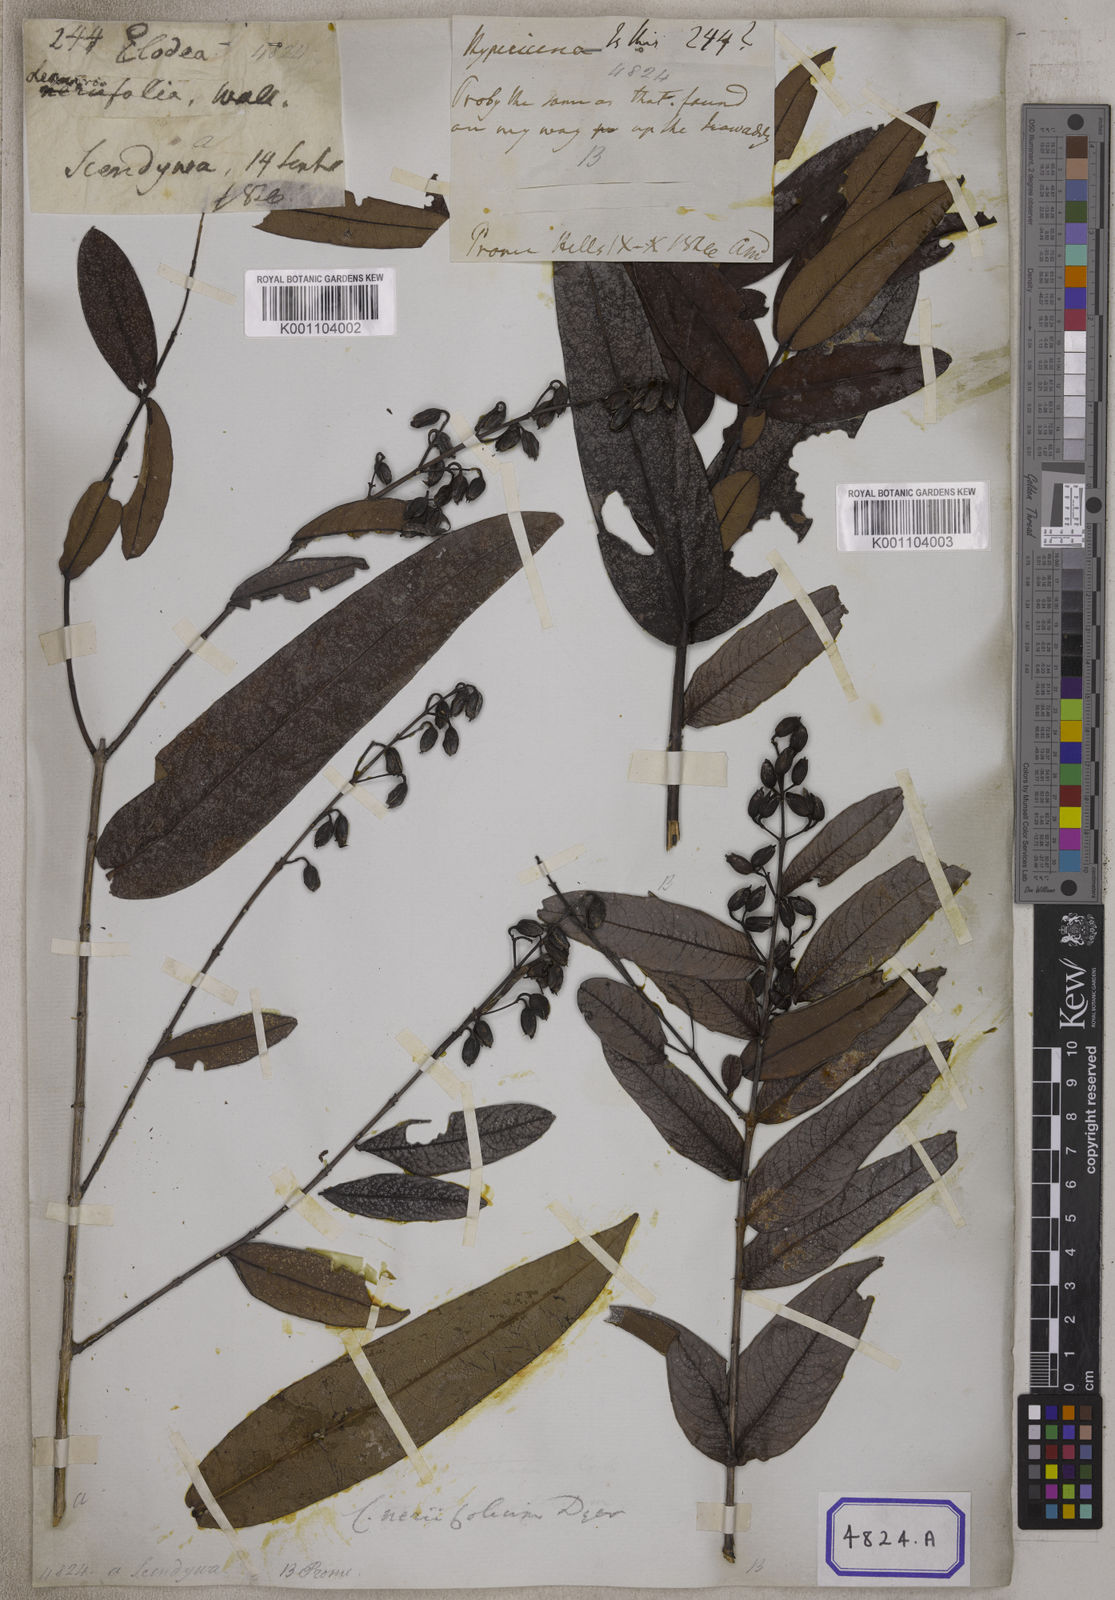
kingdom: Plantae
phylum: Tracheophyta
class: Magnoliopsida
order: Malpighiales
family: Hypericaceae
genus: Cratoxylum
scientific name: Cratoxylum neriifolium
